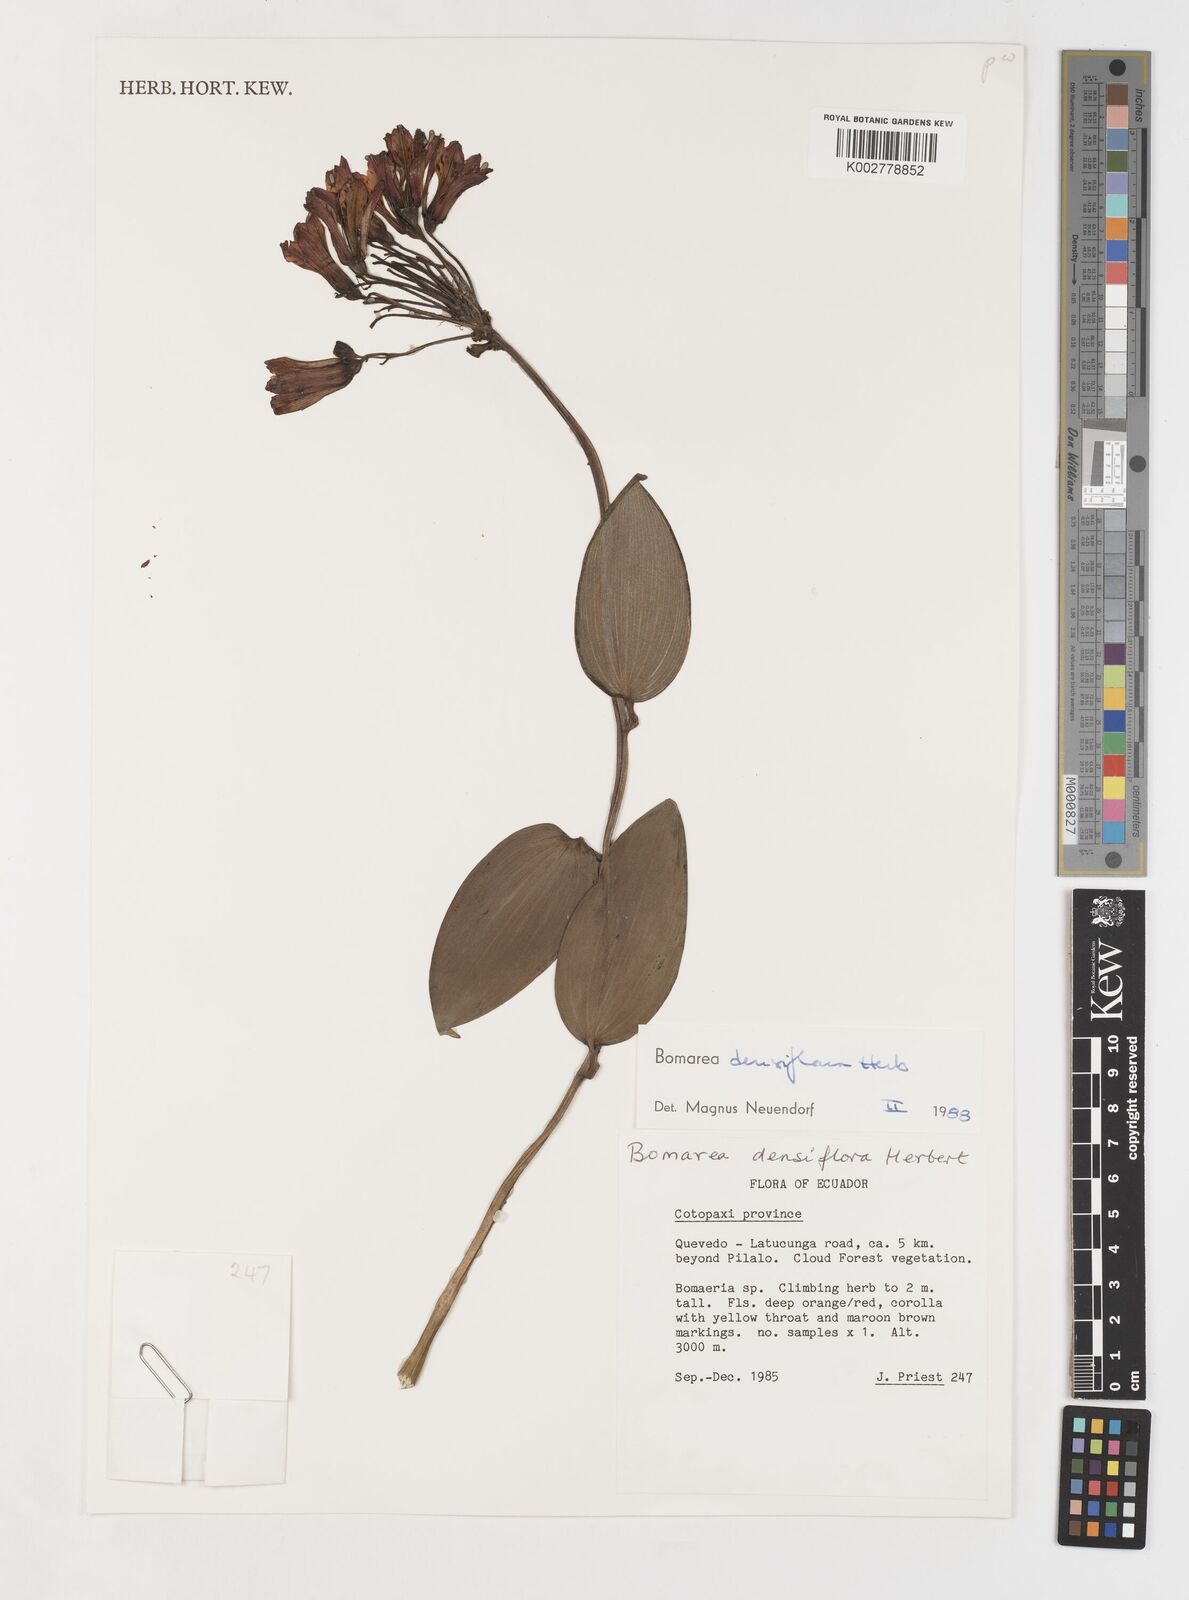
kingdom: Plantae
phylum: Tracheophyta
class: Liliopsida
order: Liliales
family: Alstroemeriaceae
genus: Bomarea
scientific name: Bomarea densiflora
